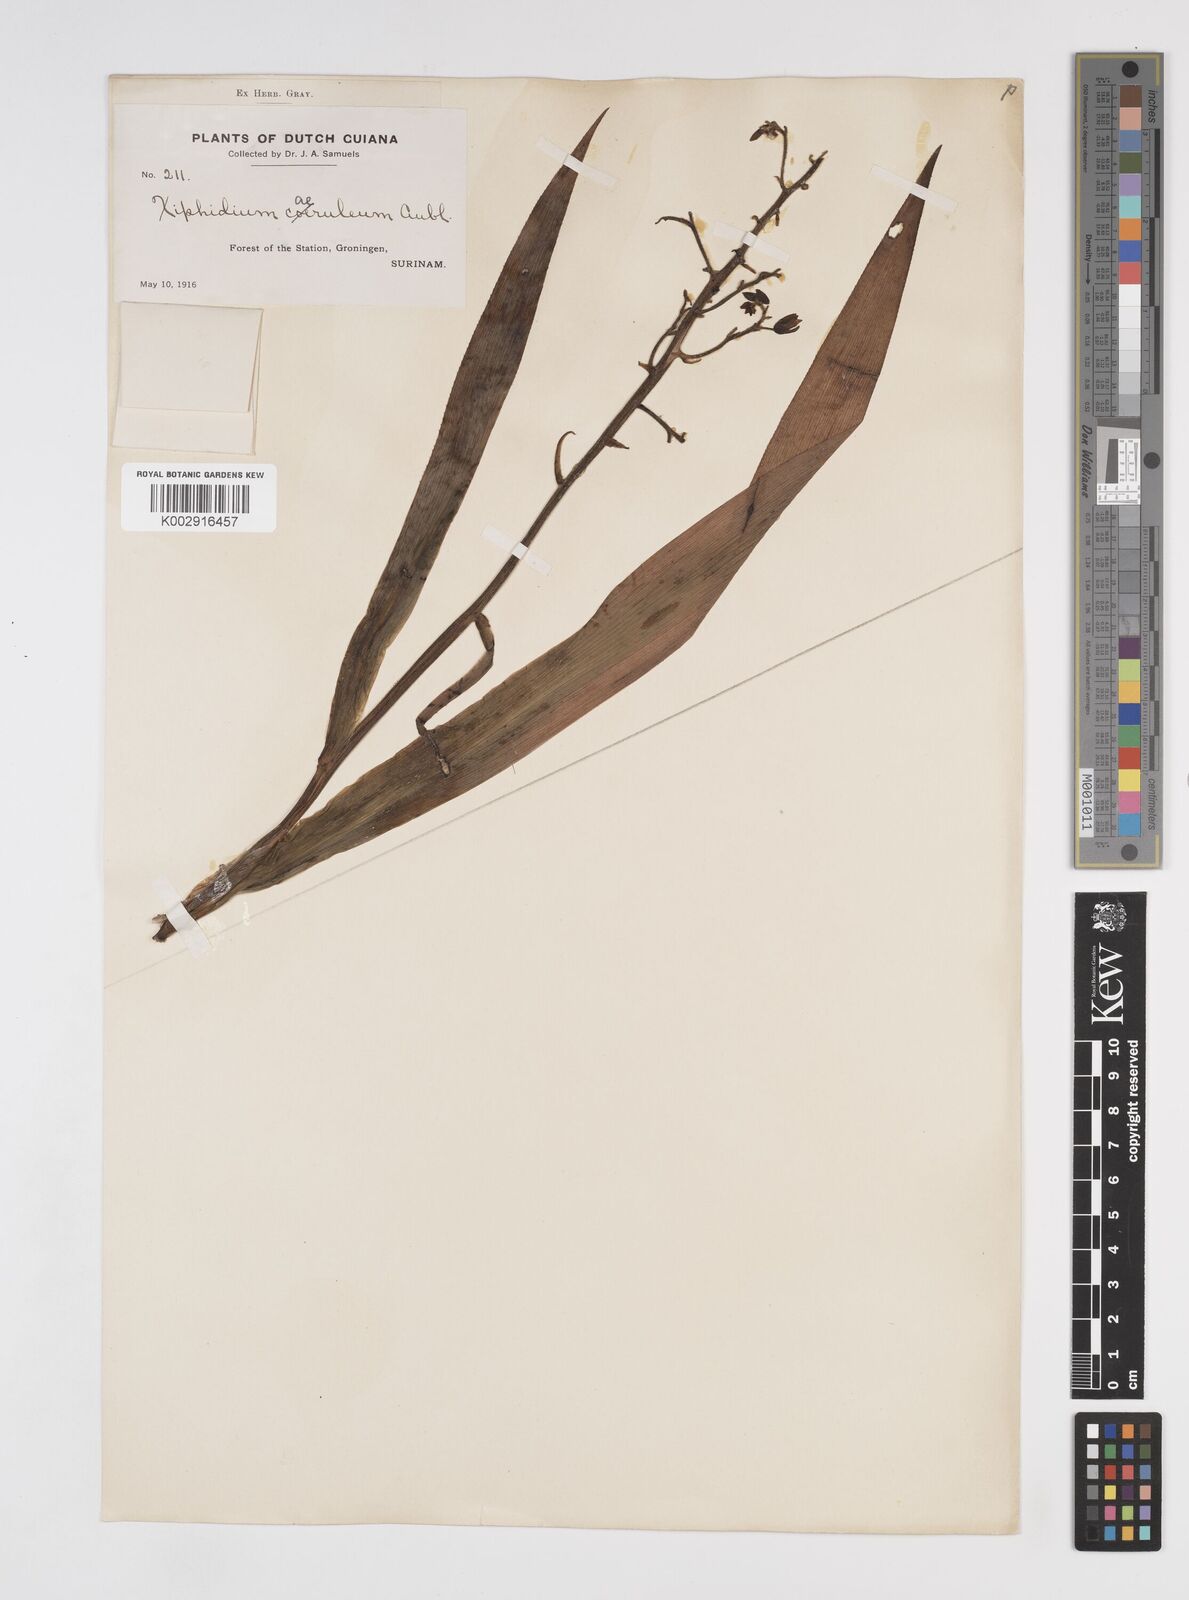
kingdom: Plantae
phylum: Tracheophyta
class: Liliopsida
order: Commelinales
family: Haemodoraceae
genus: Xiphidium
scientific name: Xiphidium caeruleum
